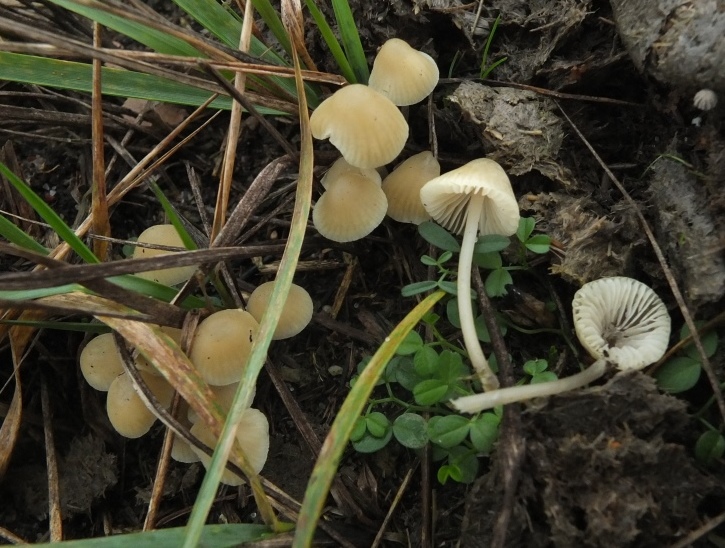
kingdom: Fungi
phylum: Basidiomycota
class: Agaricomycetes
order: Polyporales
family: Polyporaceae
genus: Trametes
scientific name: Trametes versicolor
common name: broget læderporesvamp
